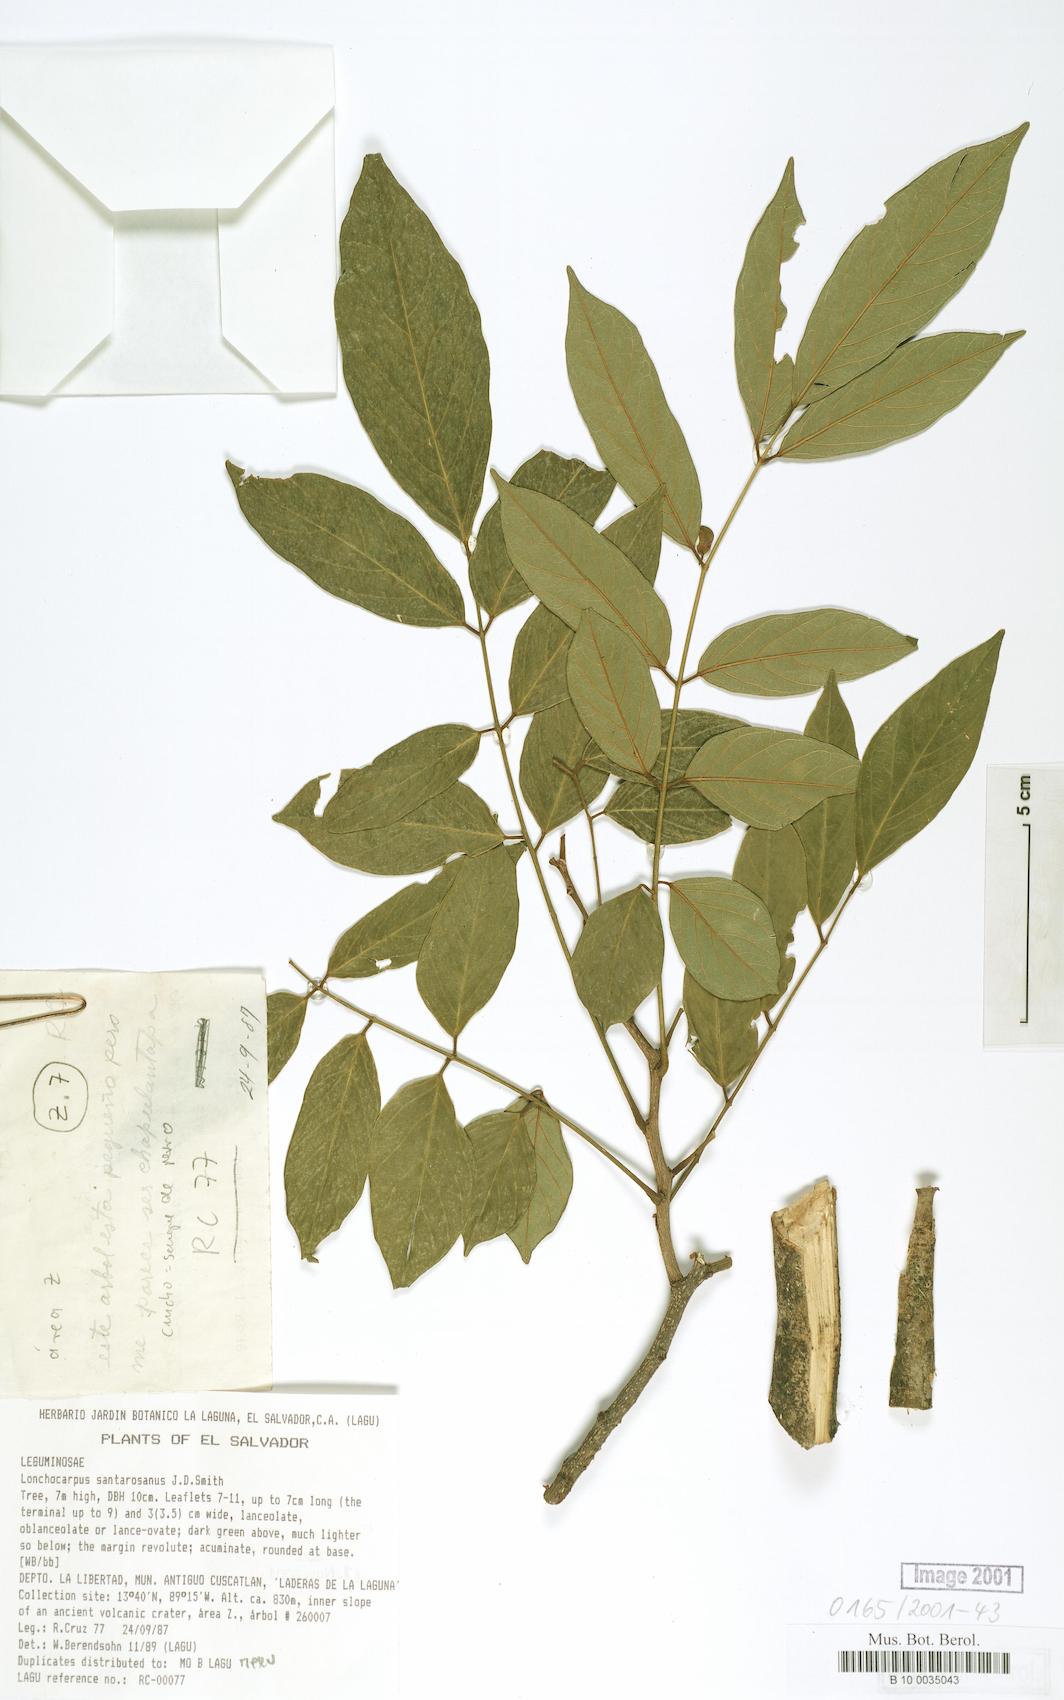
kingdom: Plantae
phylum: Tracheophyta
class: Magnoliopsida
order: Fabales
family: Fabaceae
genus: Lonchocarpus
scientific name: Lonchocarpus santarosanus
